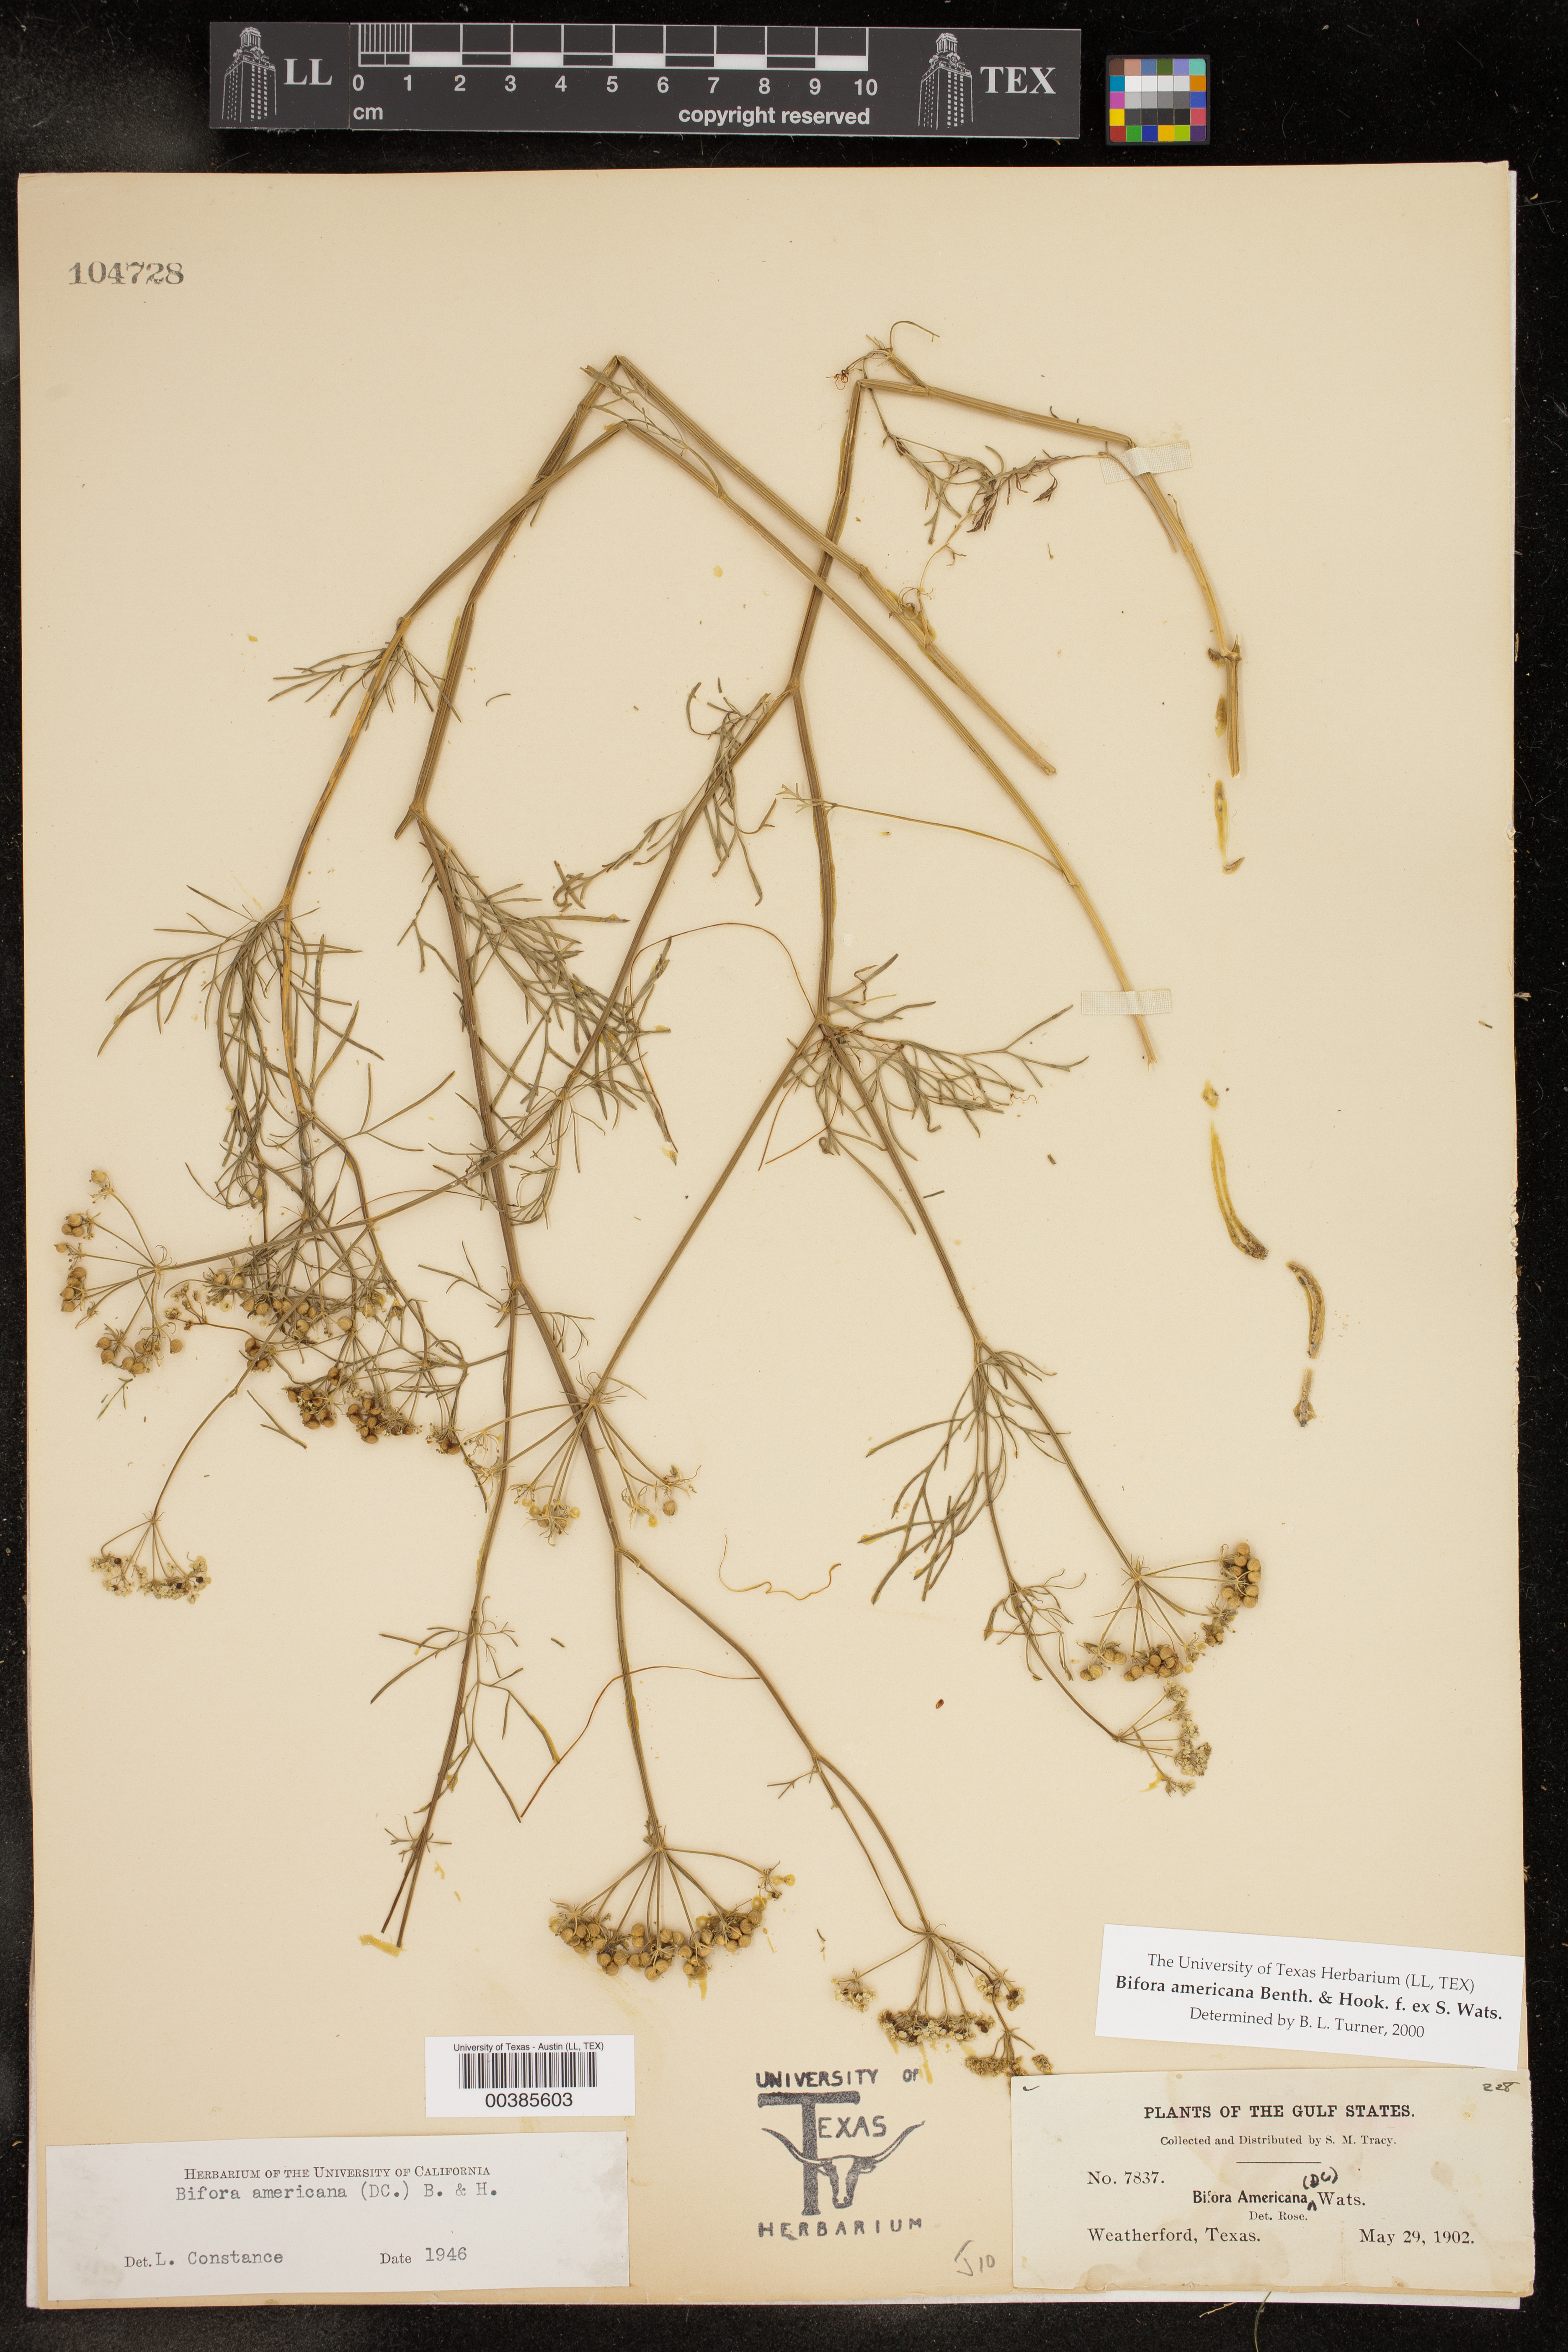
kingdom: Plantae
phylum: Tracheophyta
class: Magnoliopsida
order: Apiales
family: Apiaceae
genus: Atrema
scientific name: Atrema americanum
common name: Prairie-bishop
